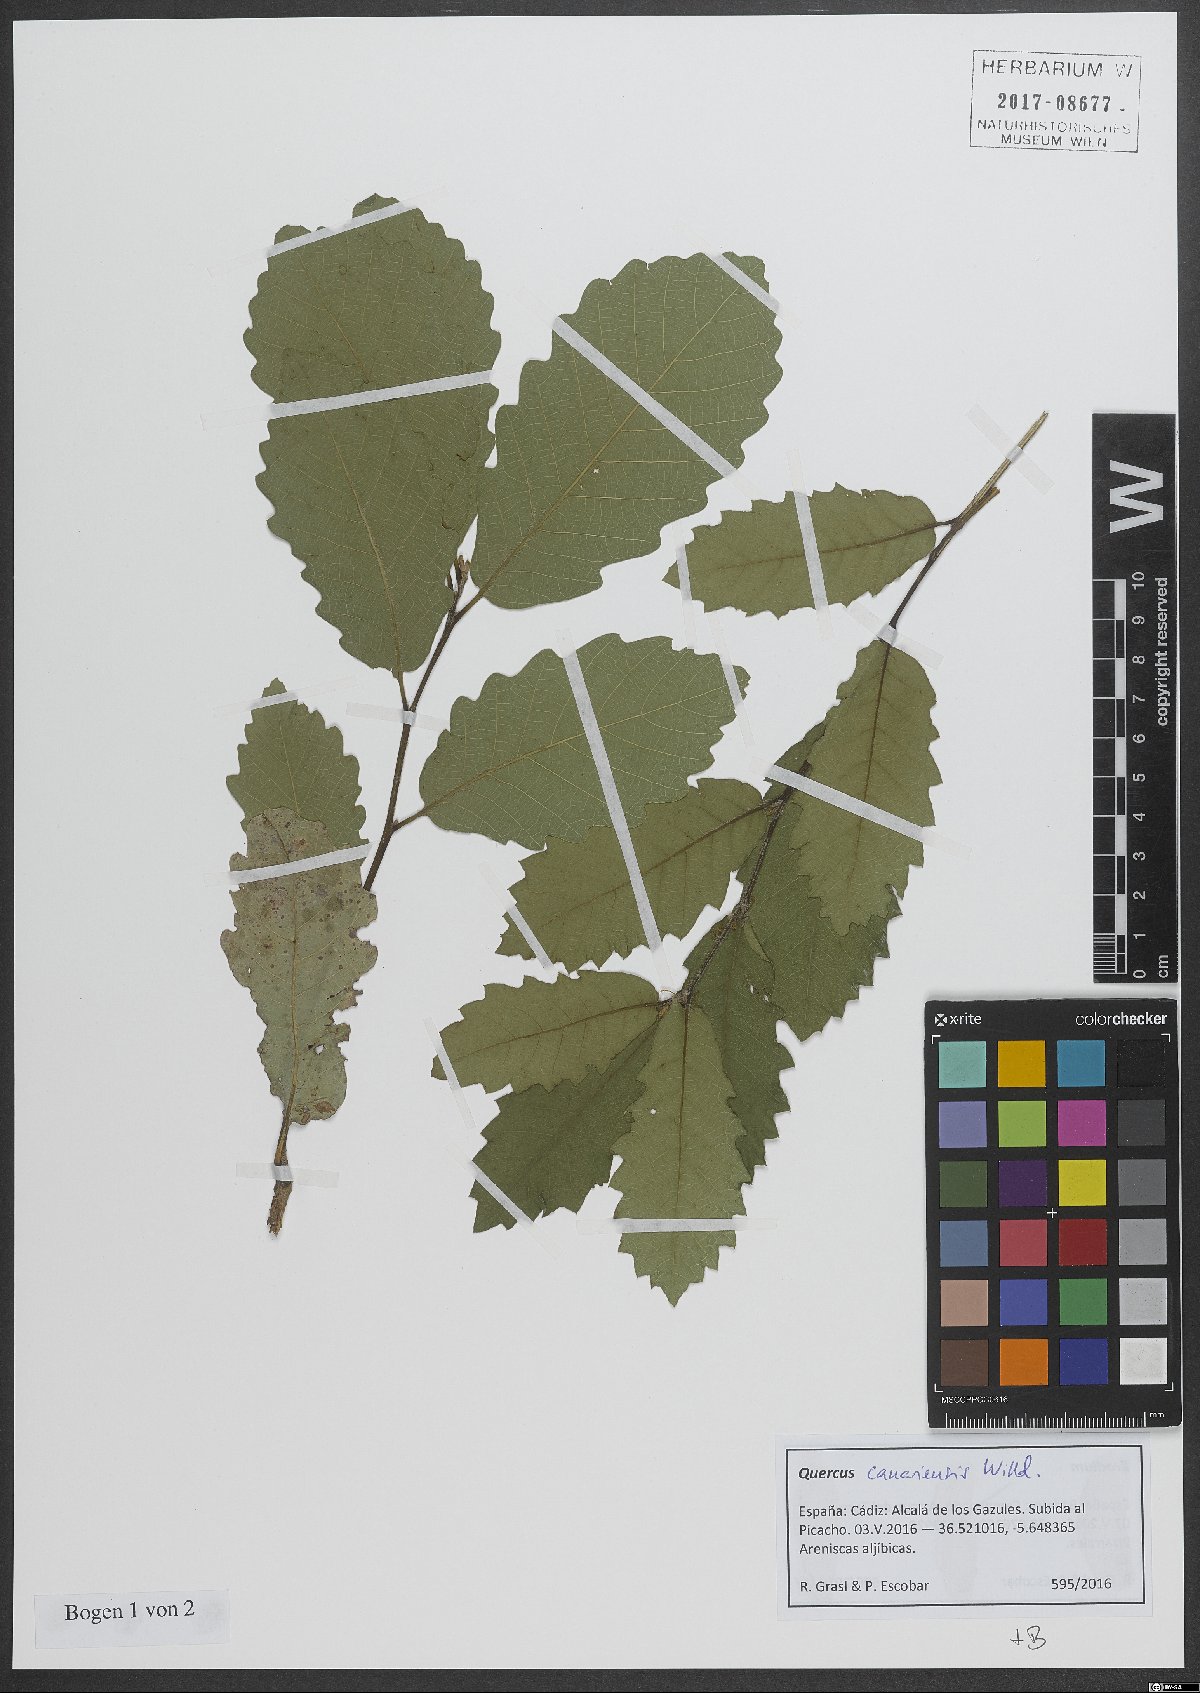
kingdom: Plantae
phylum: Tracheophyta
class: Magnoliopsida
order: Fagales
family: Fagaceae
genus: Quercus
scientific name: Quercus canariensis
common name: Algerian oak
